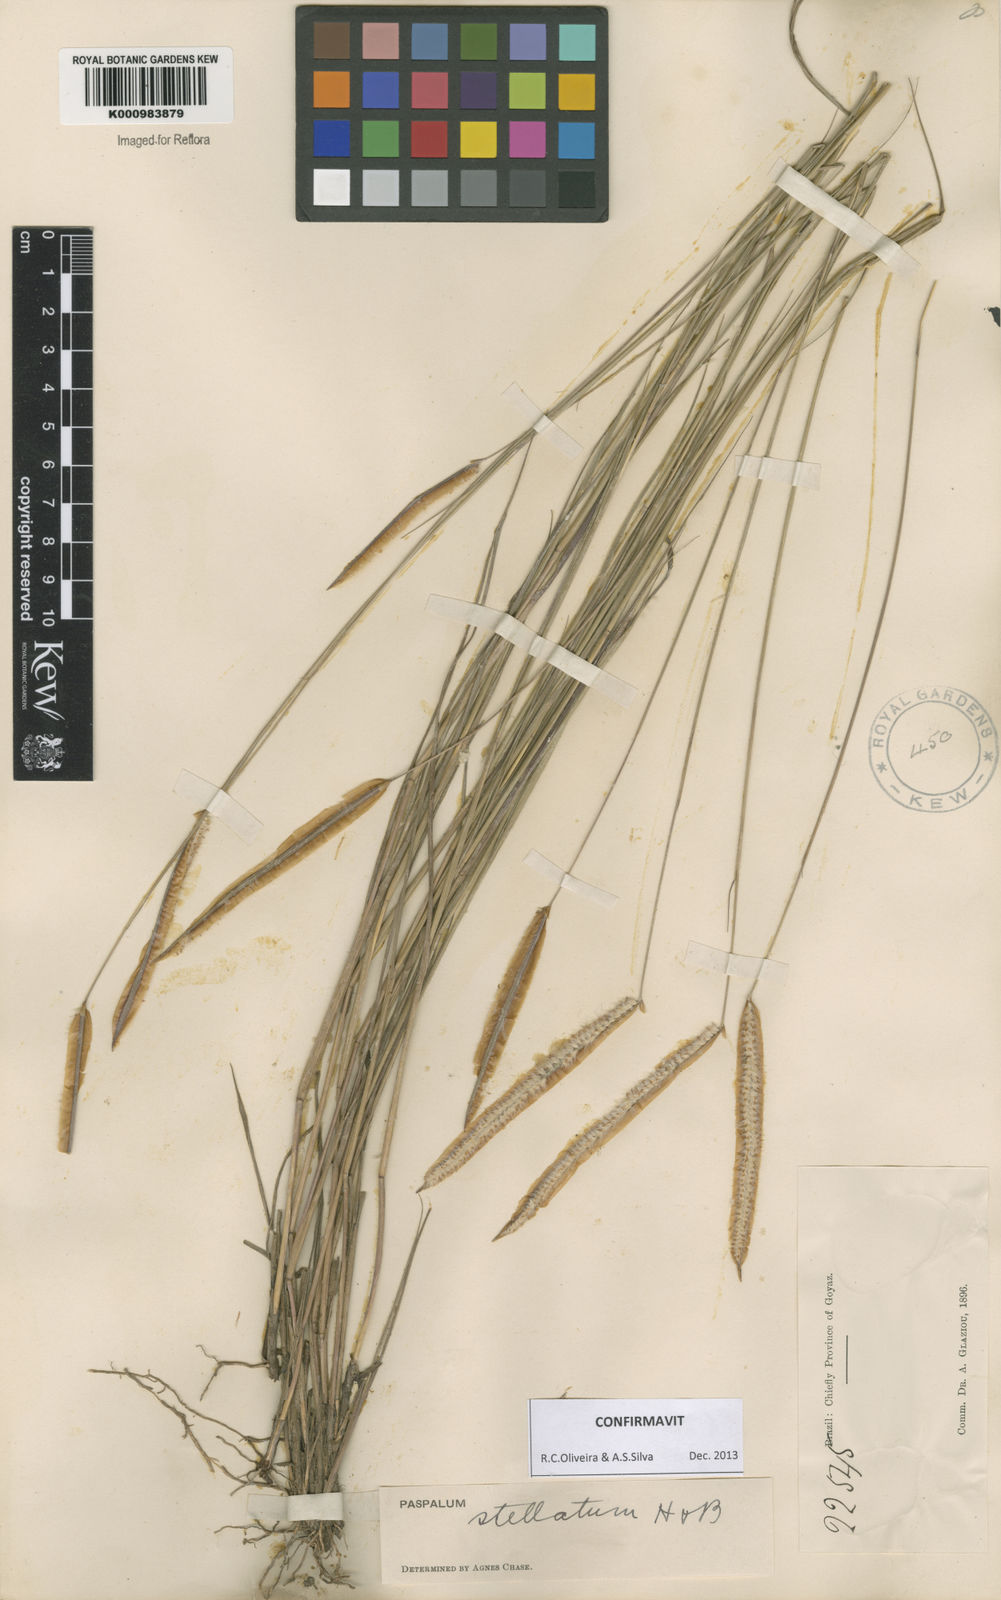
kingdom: Plantae
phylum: Tracheophyta
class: Liliopsida
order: Poales
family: Poaceae
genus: Paspalum
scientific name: Paspalum
